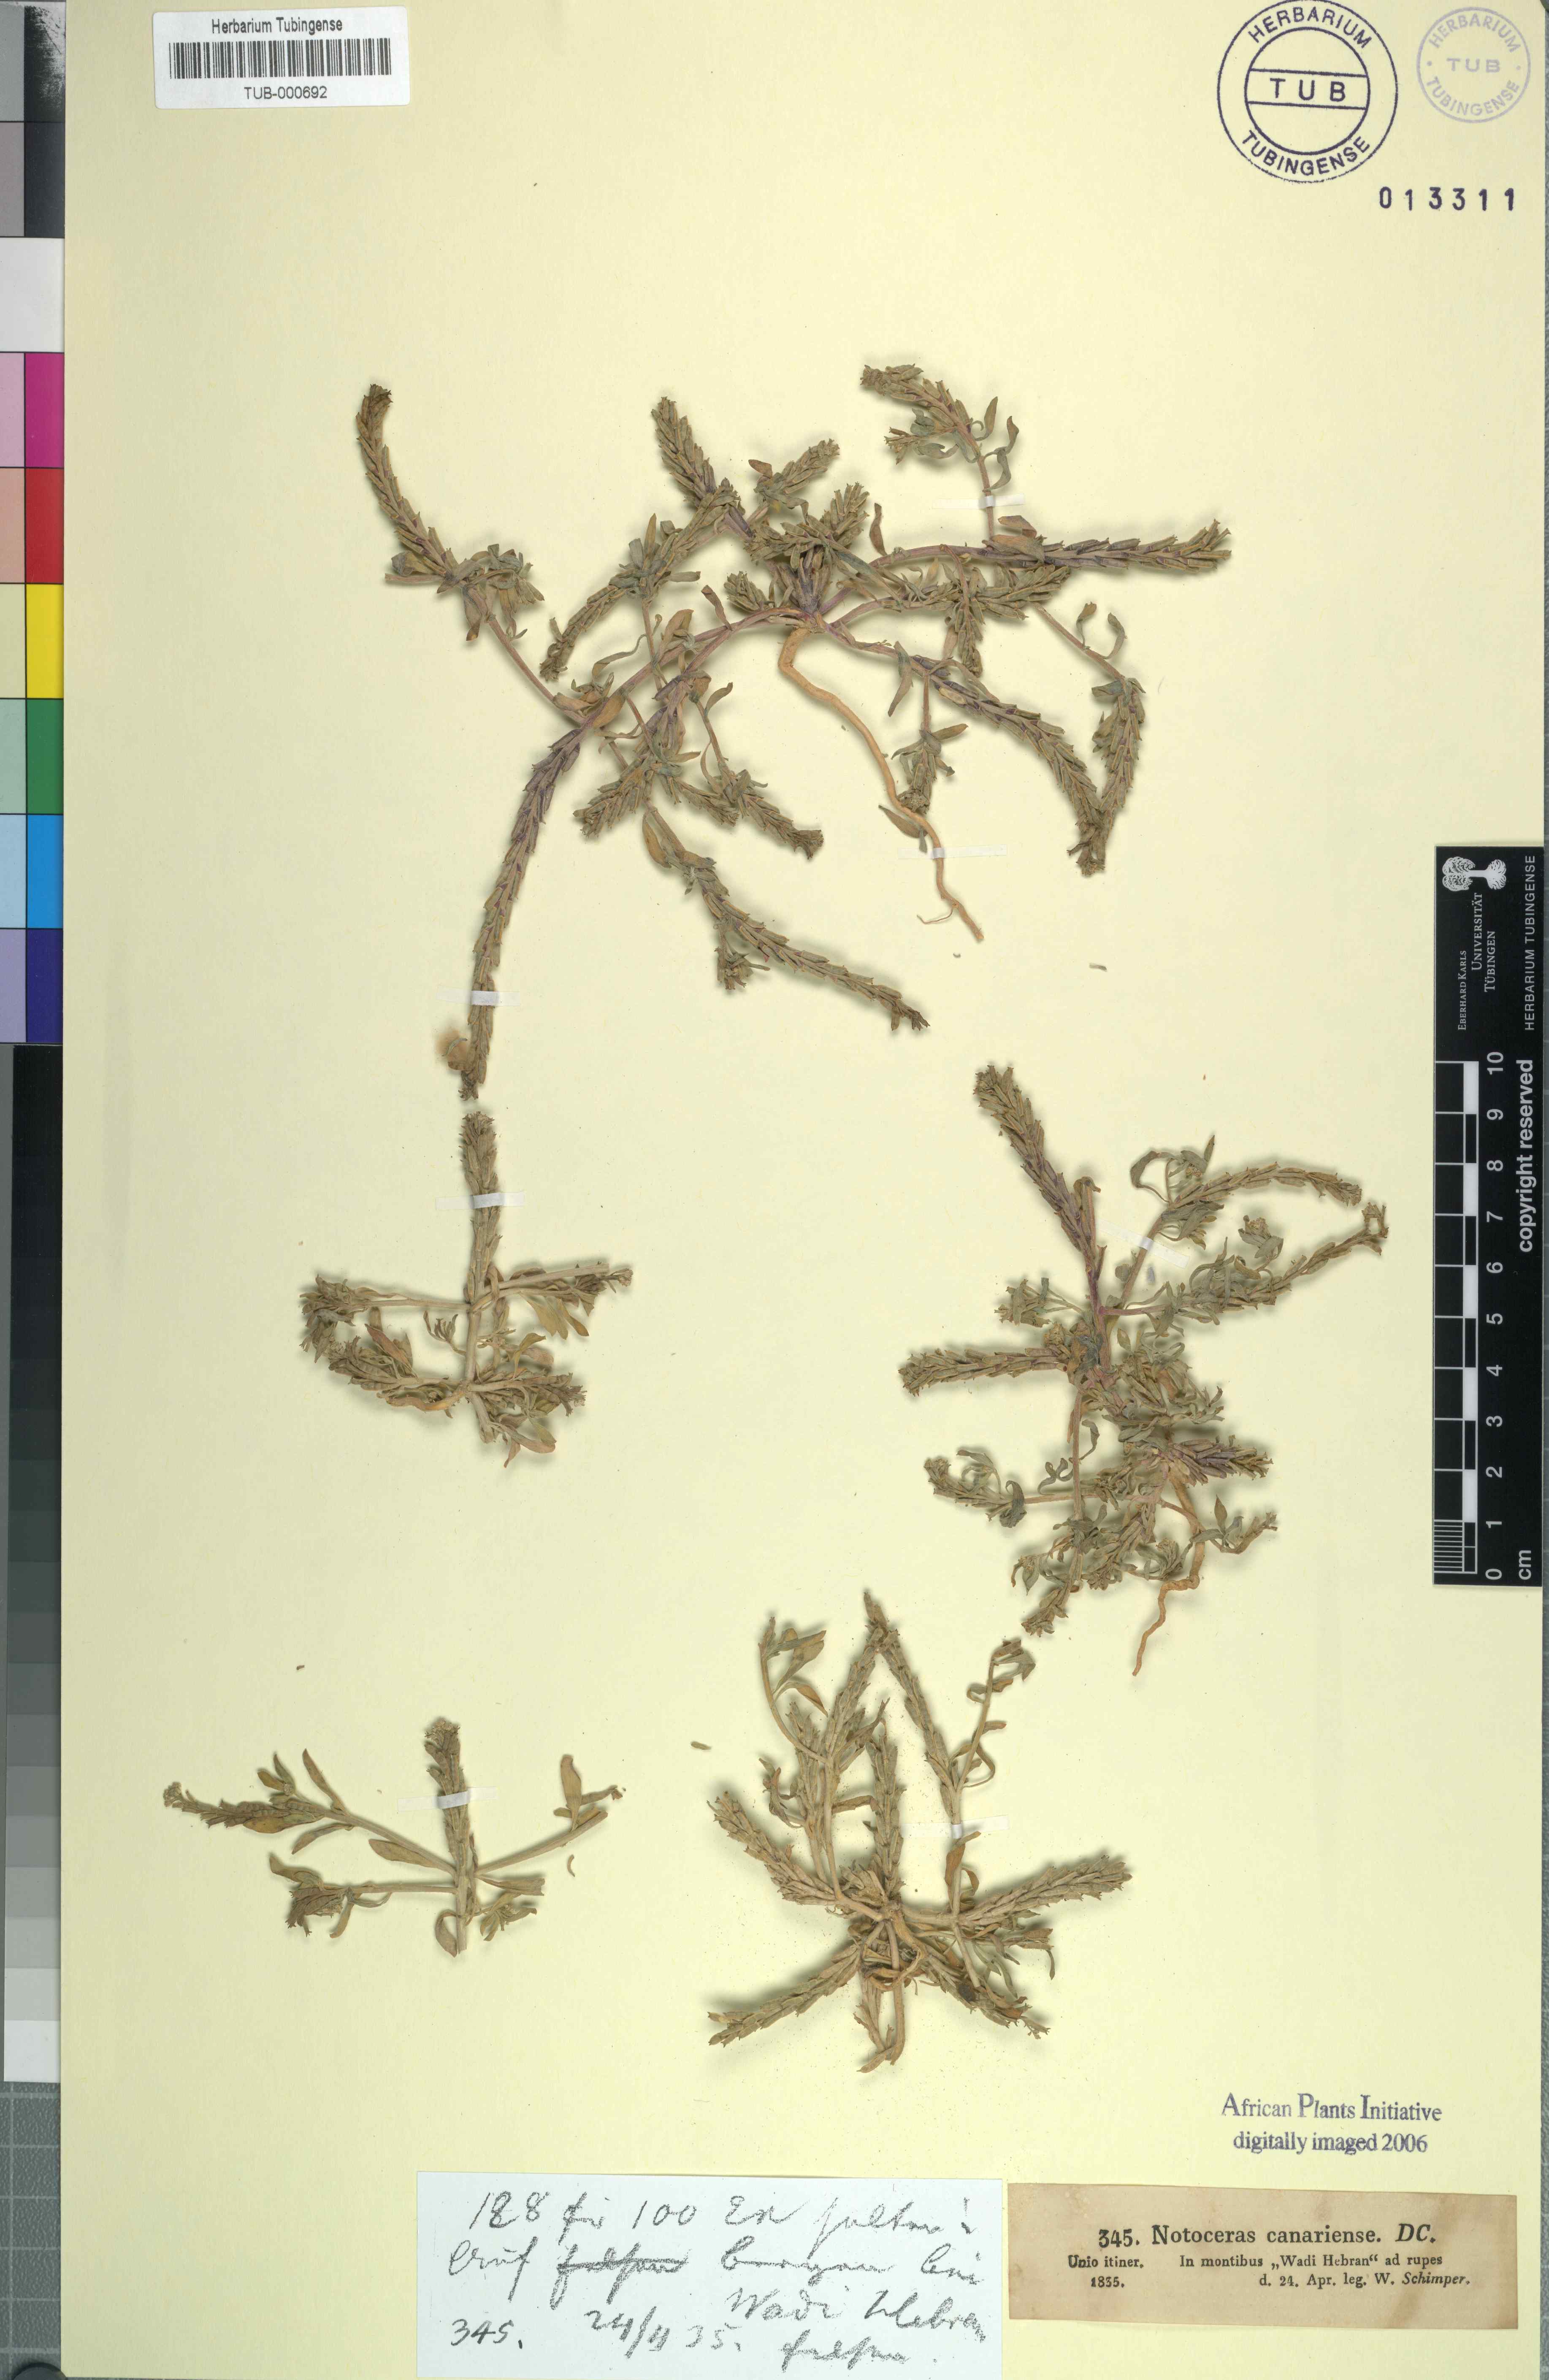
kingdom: Plantae
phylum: Tracheophyta
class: Magnoliopsida
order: Brassicales
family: Brassicaceae
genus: Notoceras
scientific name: Notoceras bicorne
